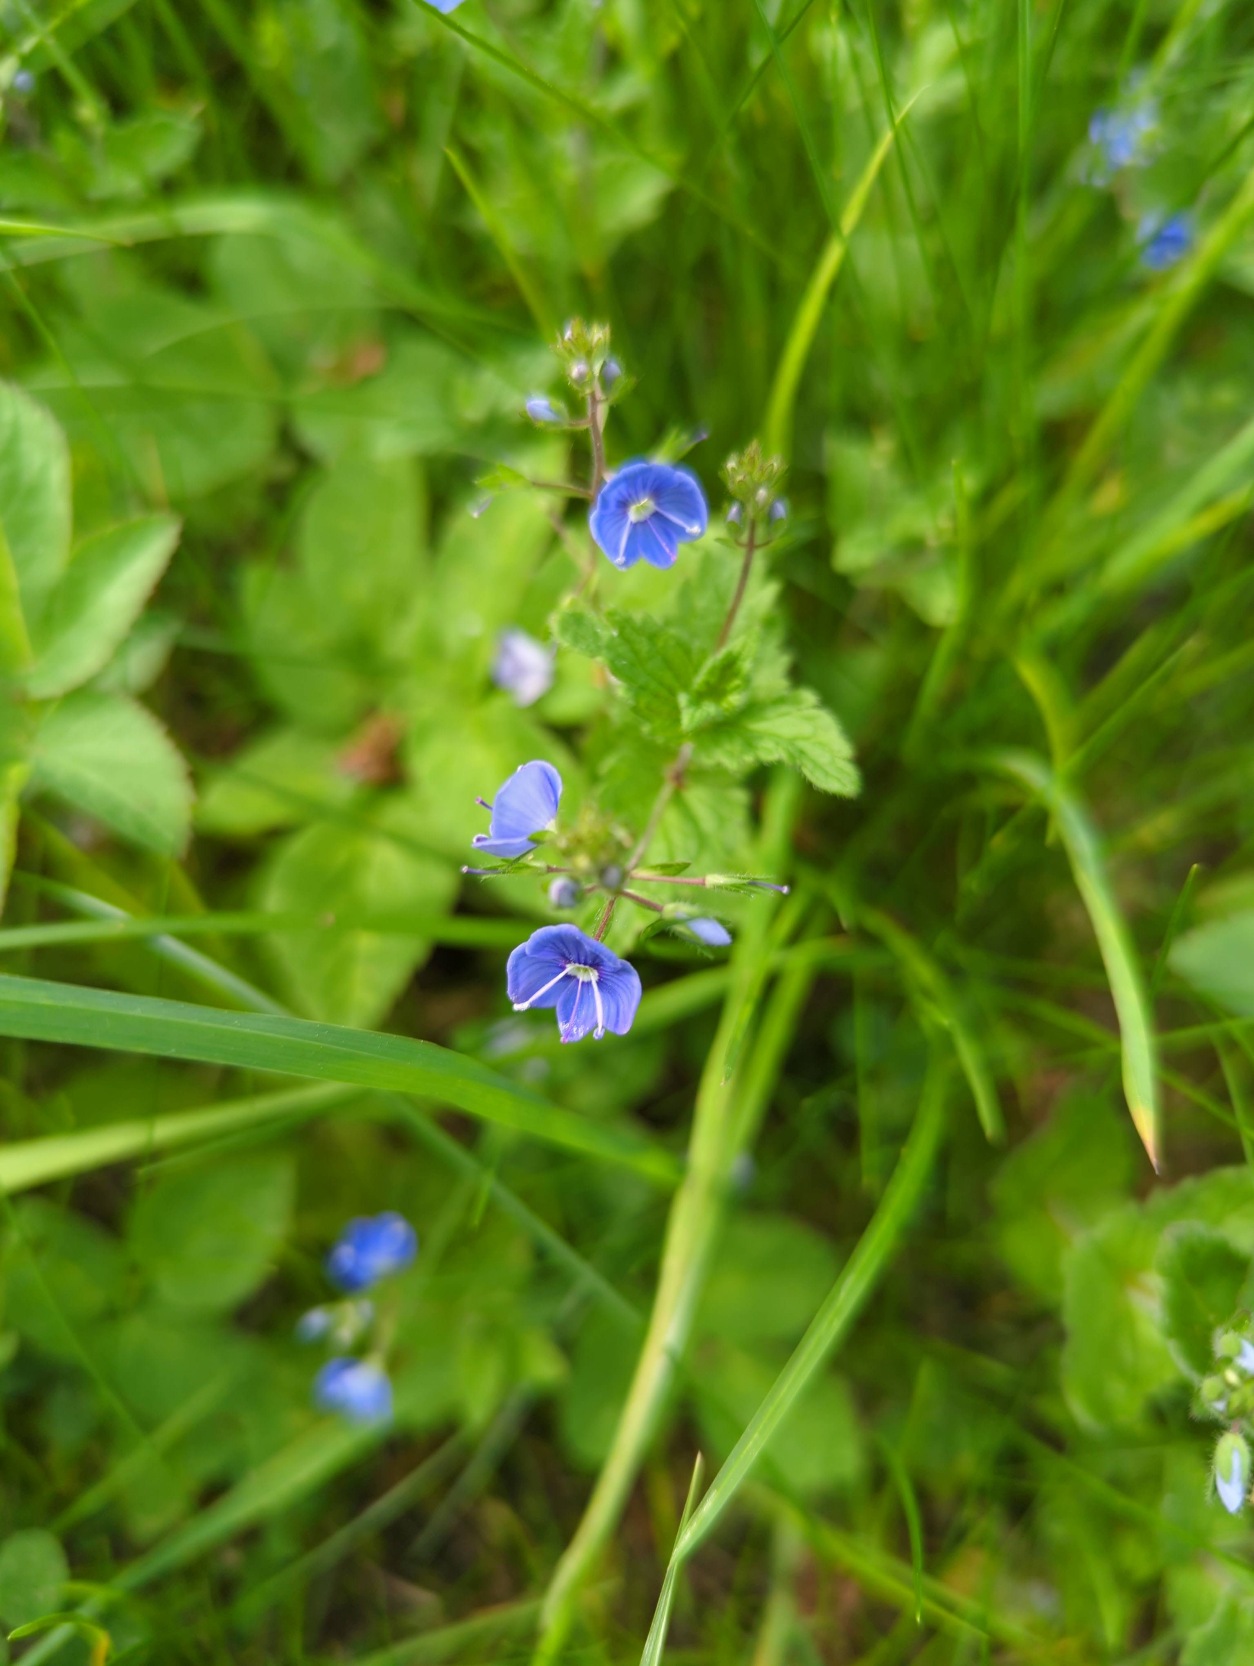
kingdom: Plantae
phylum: Tracheophyta
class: Magnoliopsida
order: Lamiales
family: Plantaginaceae
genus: Veronica
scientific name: Veronica chamaedrys
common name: Tveskægget ærenpris
